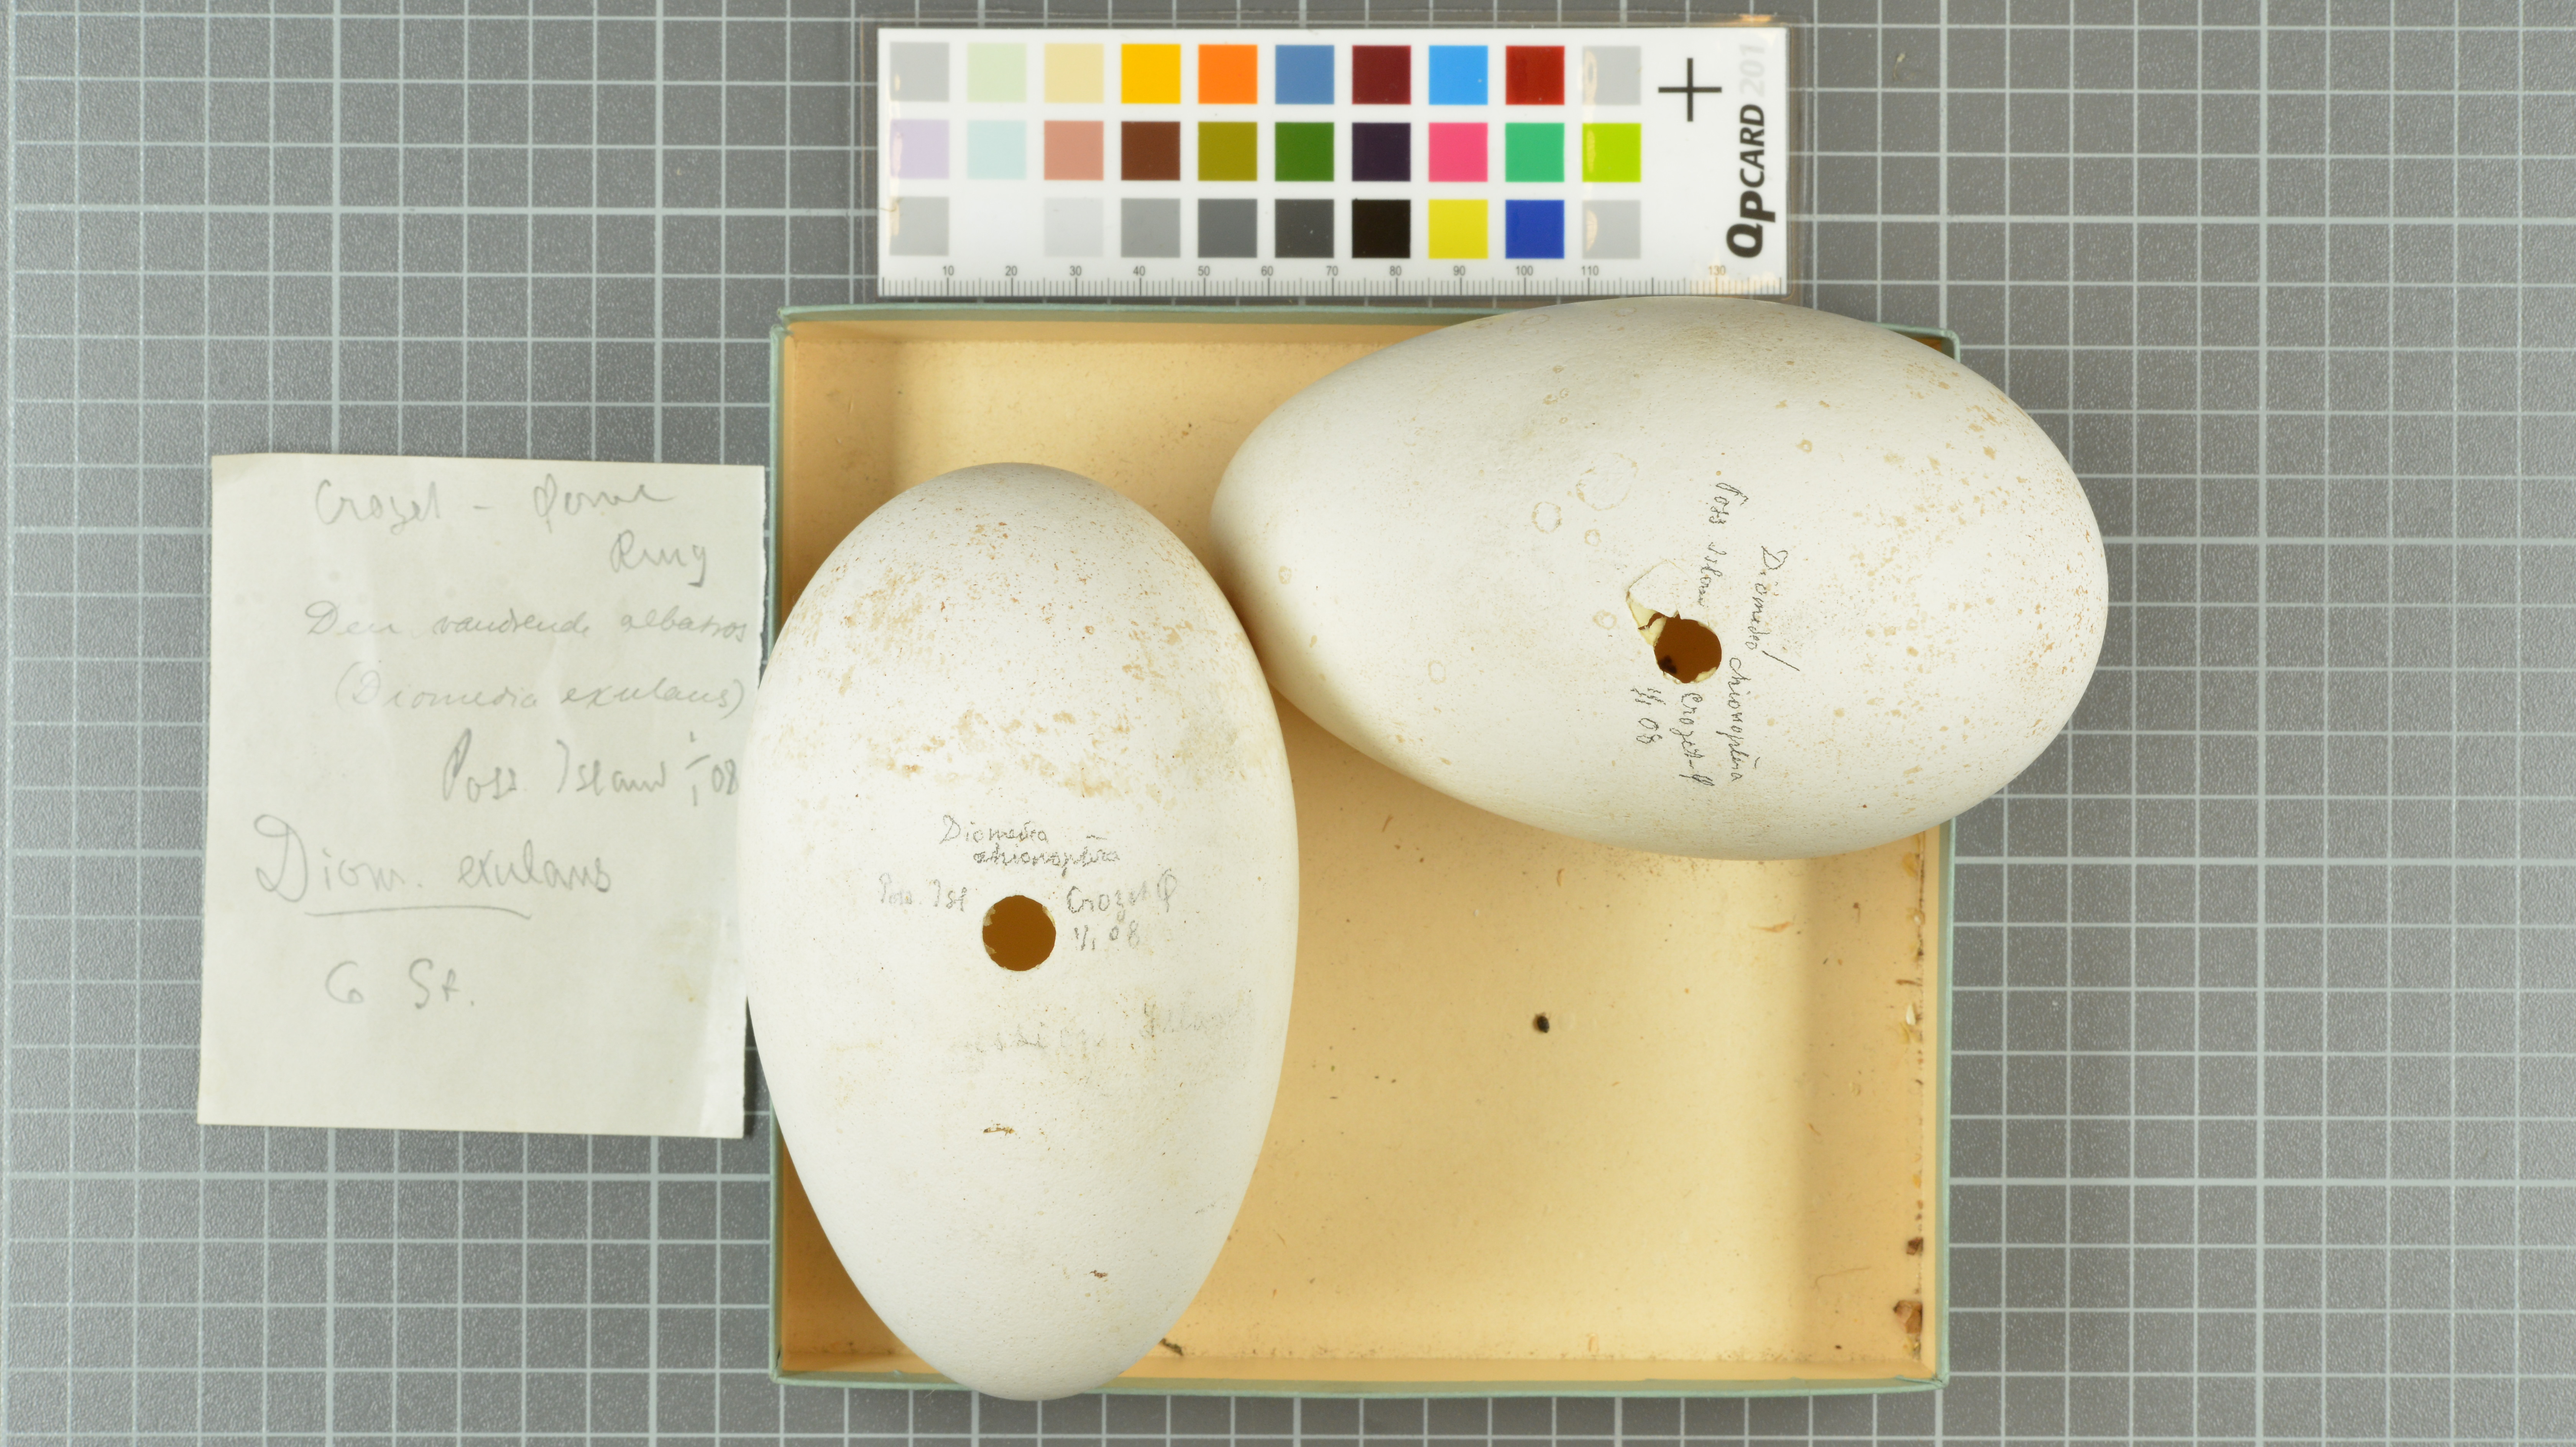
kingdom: Animalia
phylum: Chordata
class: Aves
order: Procellariiformes
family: Diomedeidae
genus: Diomedea
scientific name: Diomedea exulans
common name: Wandering albatross
